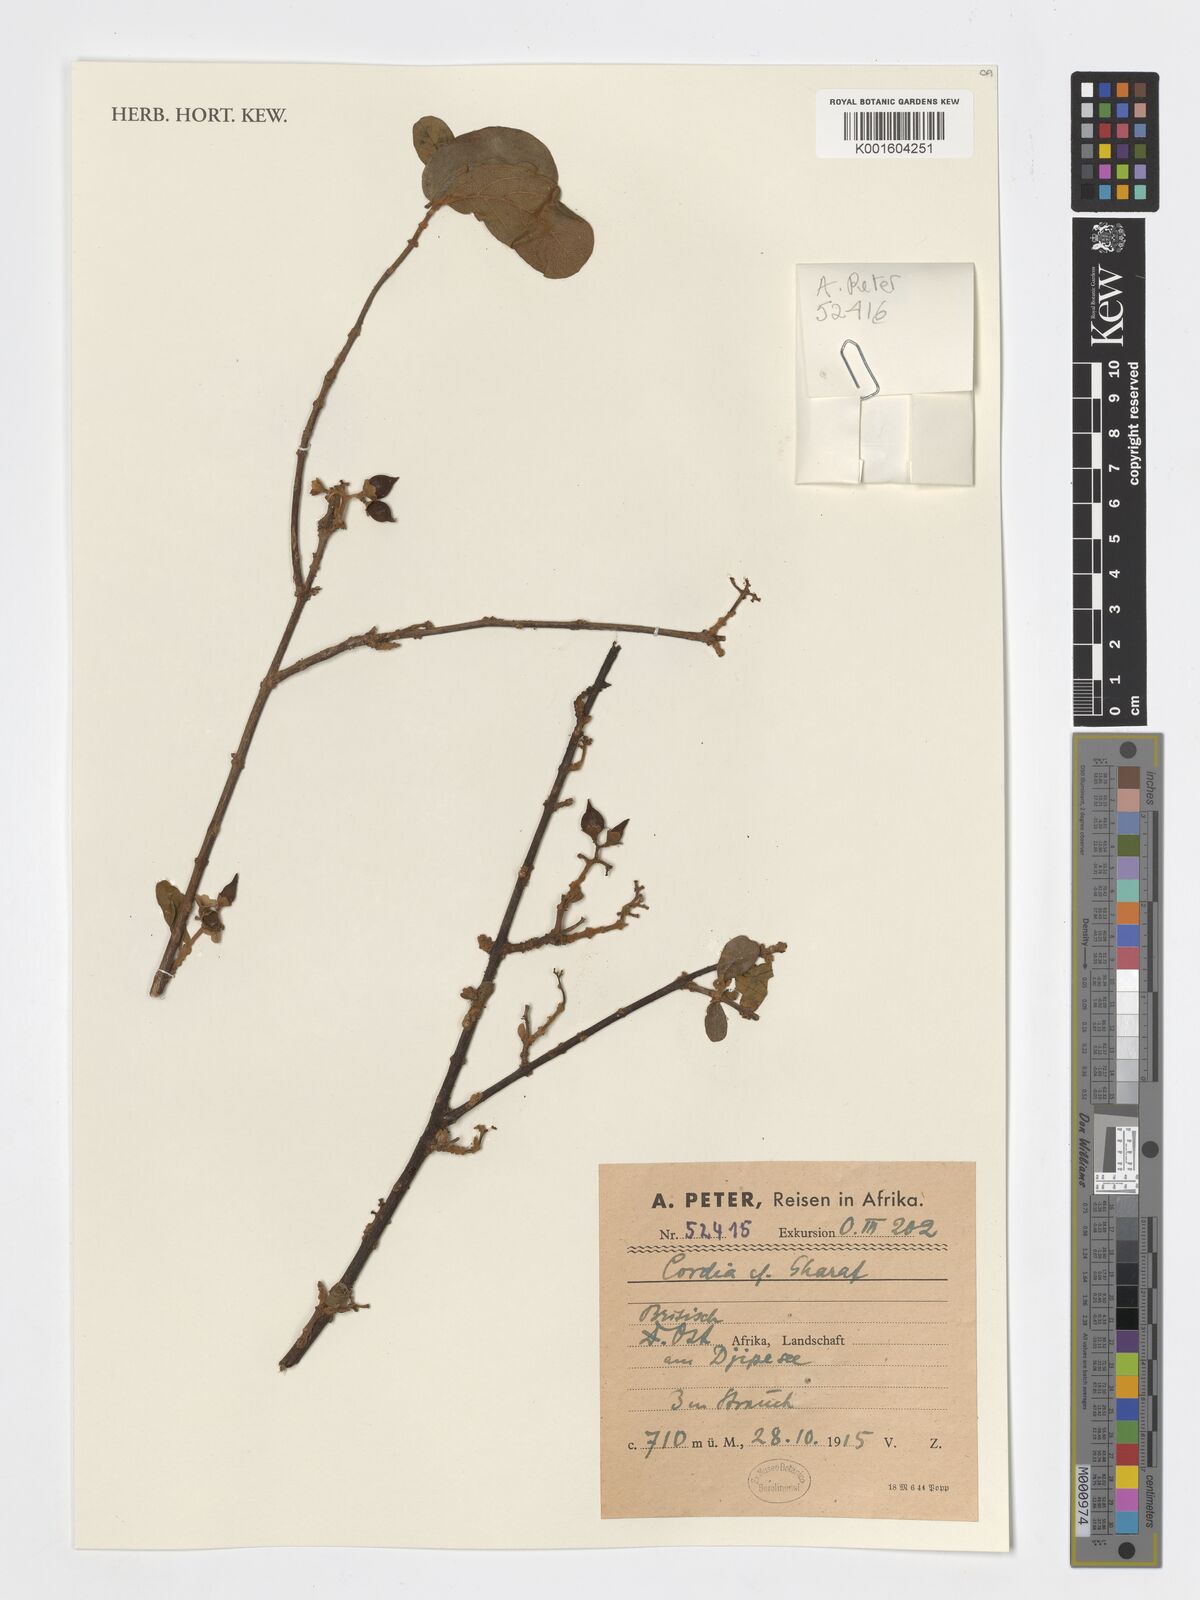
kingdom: Plantae
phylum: Tracheophyta
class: Magnoliopsida
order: Boraginales
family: Cordiaceae
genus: Cordia
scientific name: Cordia sinensis
